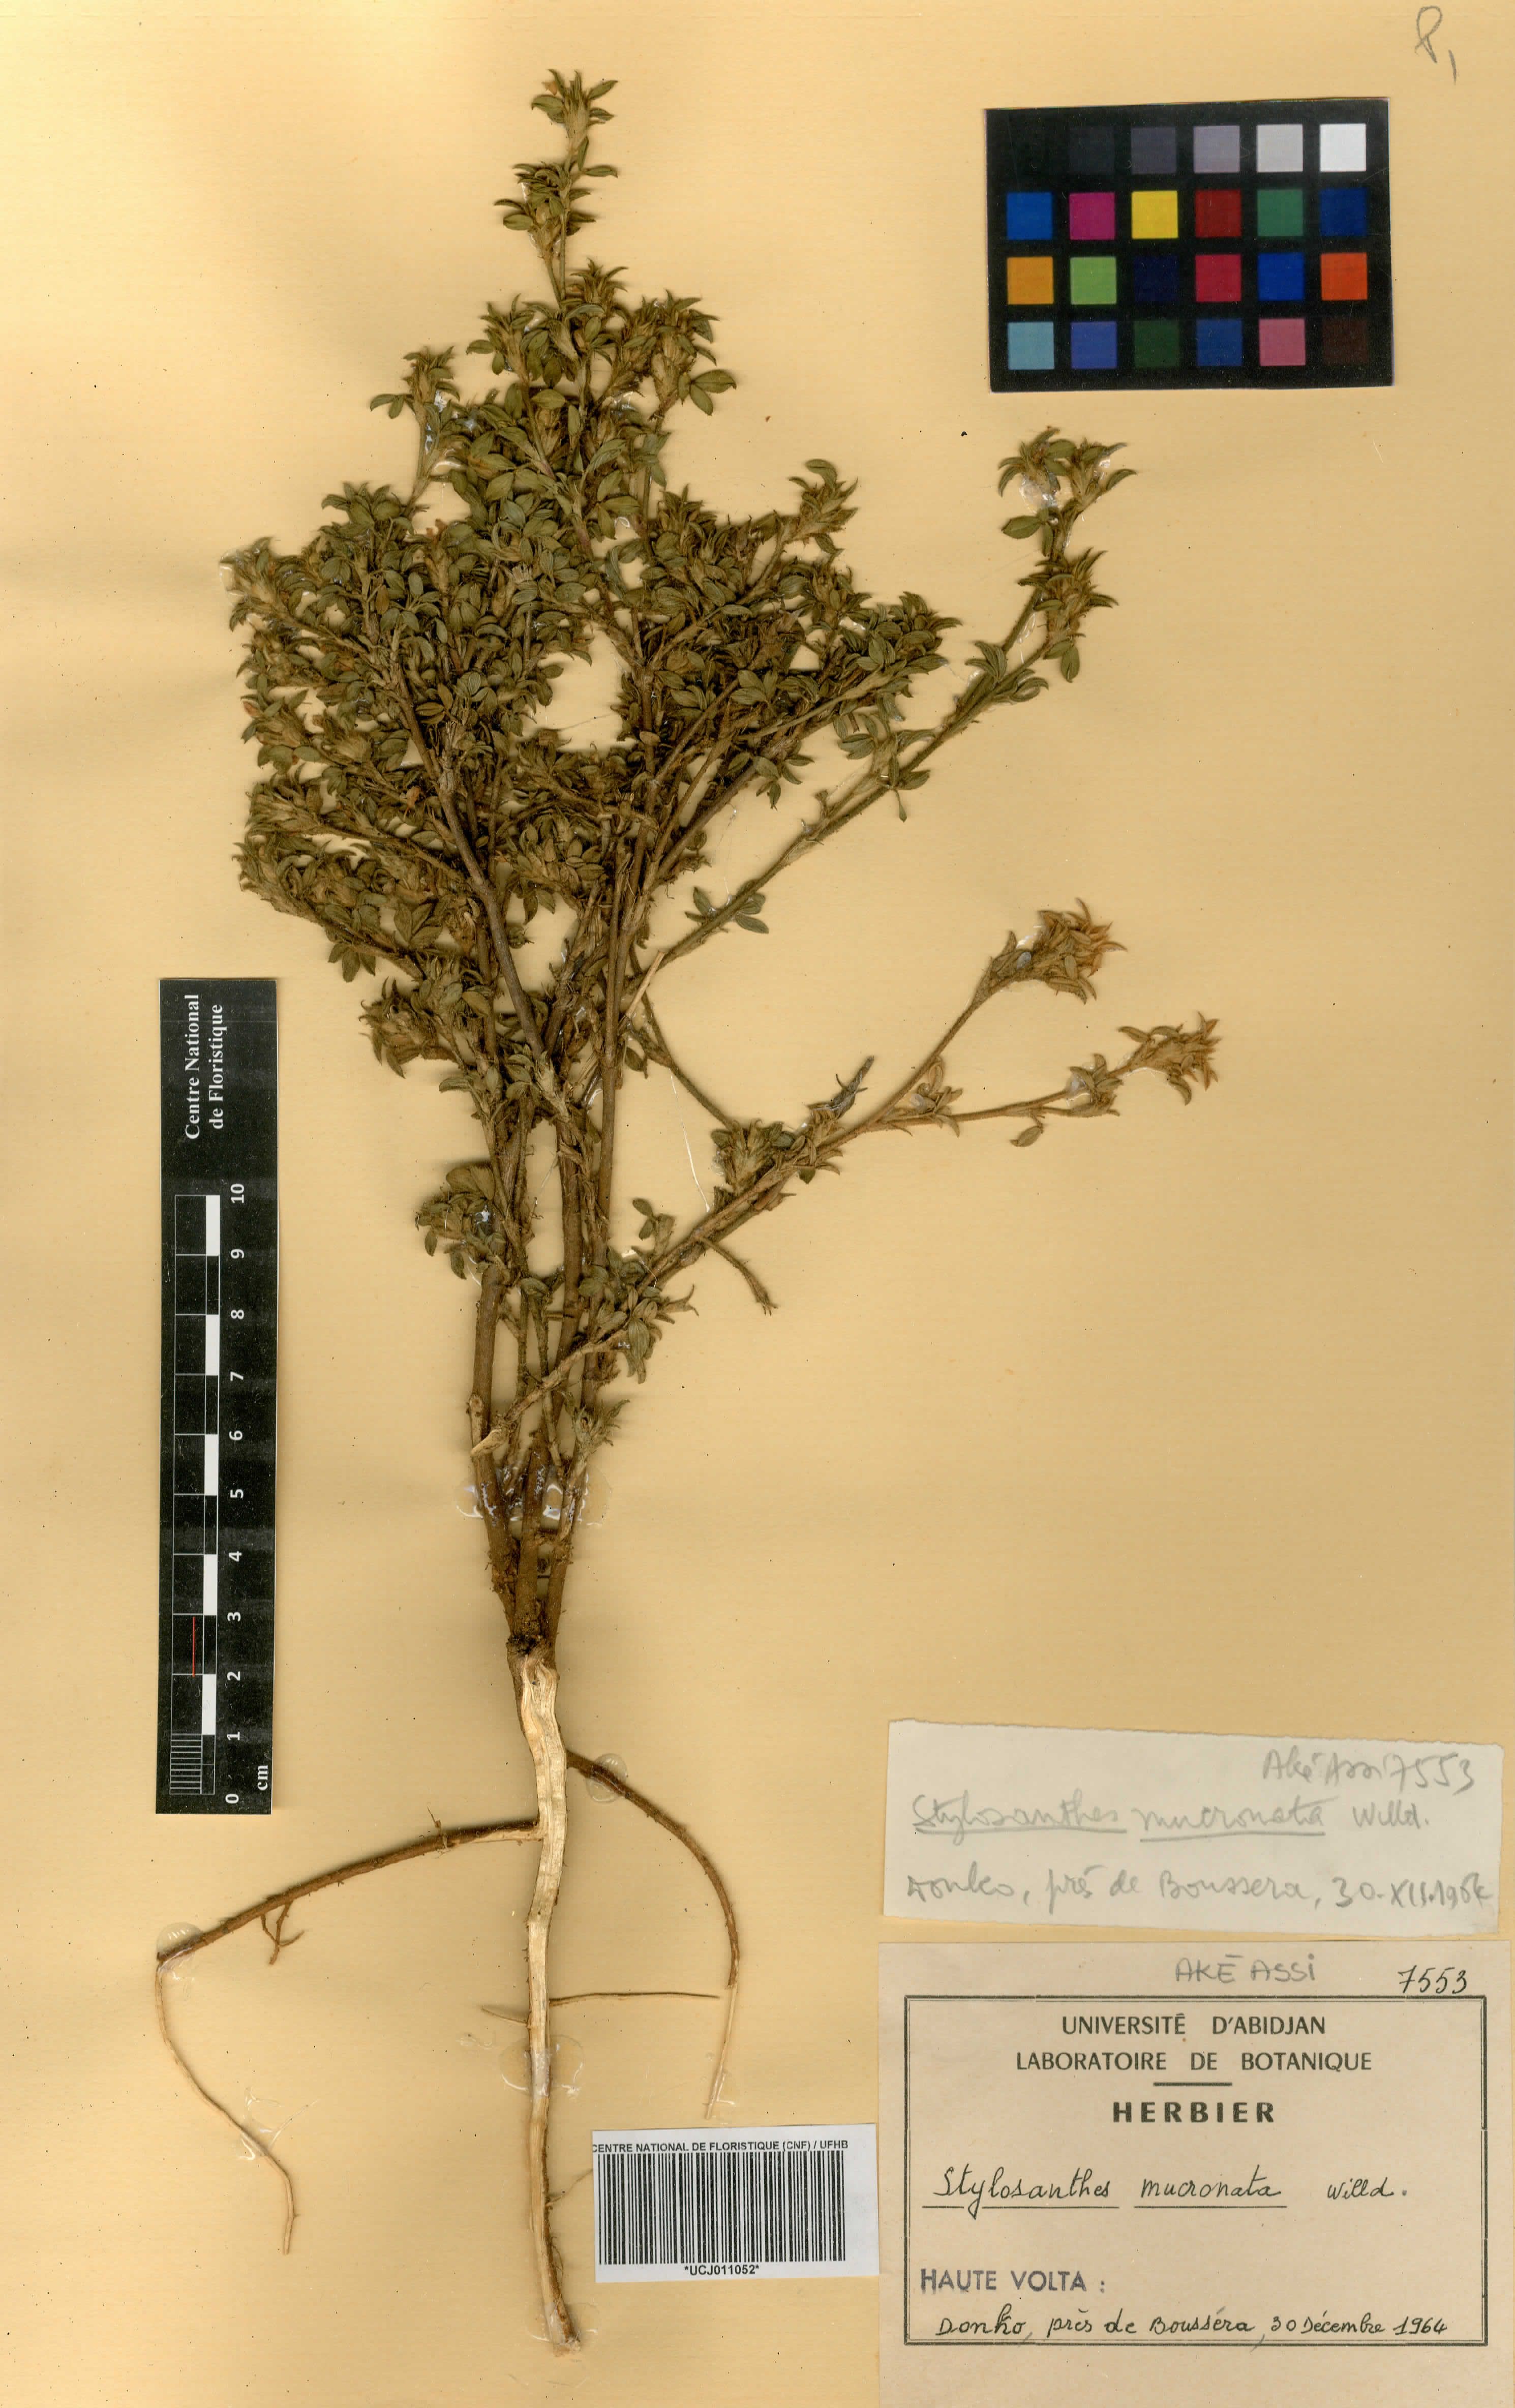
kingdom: Plantae
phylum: Tracheophyta
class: Magnoliopsida
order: Fabales
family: Fabaceae
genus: Stylosanthes
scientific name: Stylosanthes fruticosa
